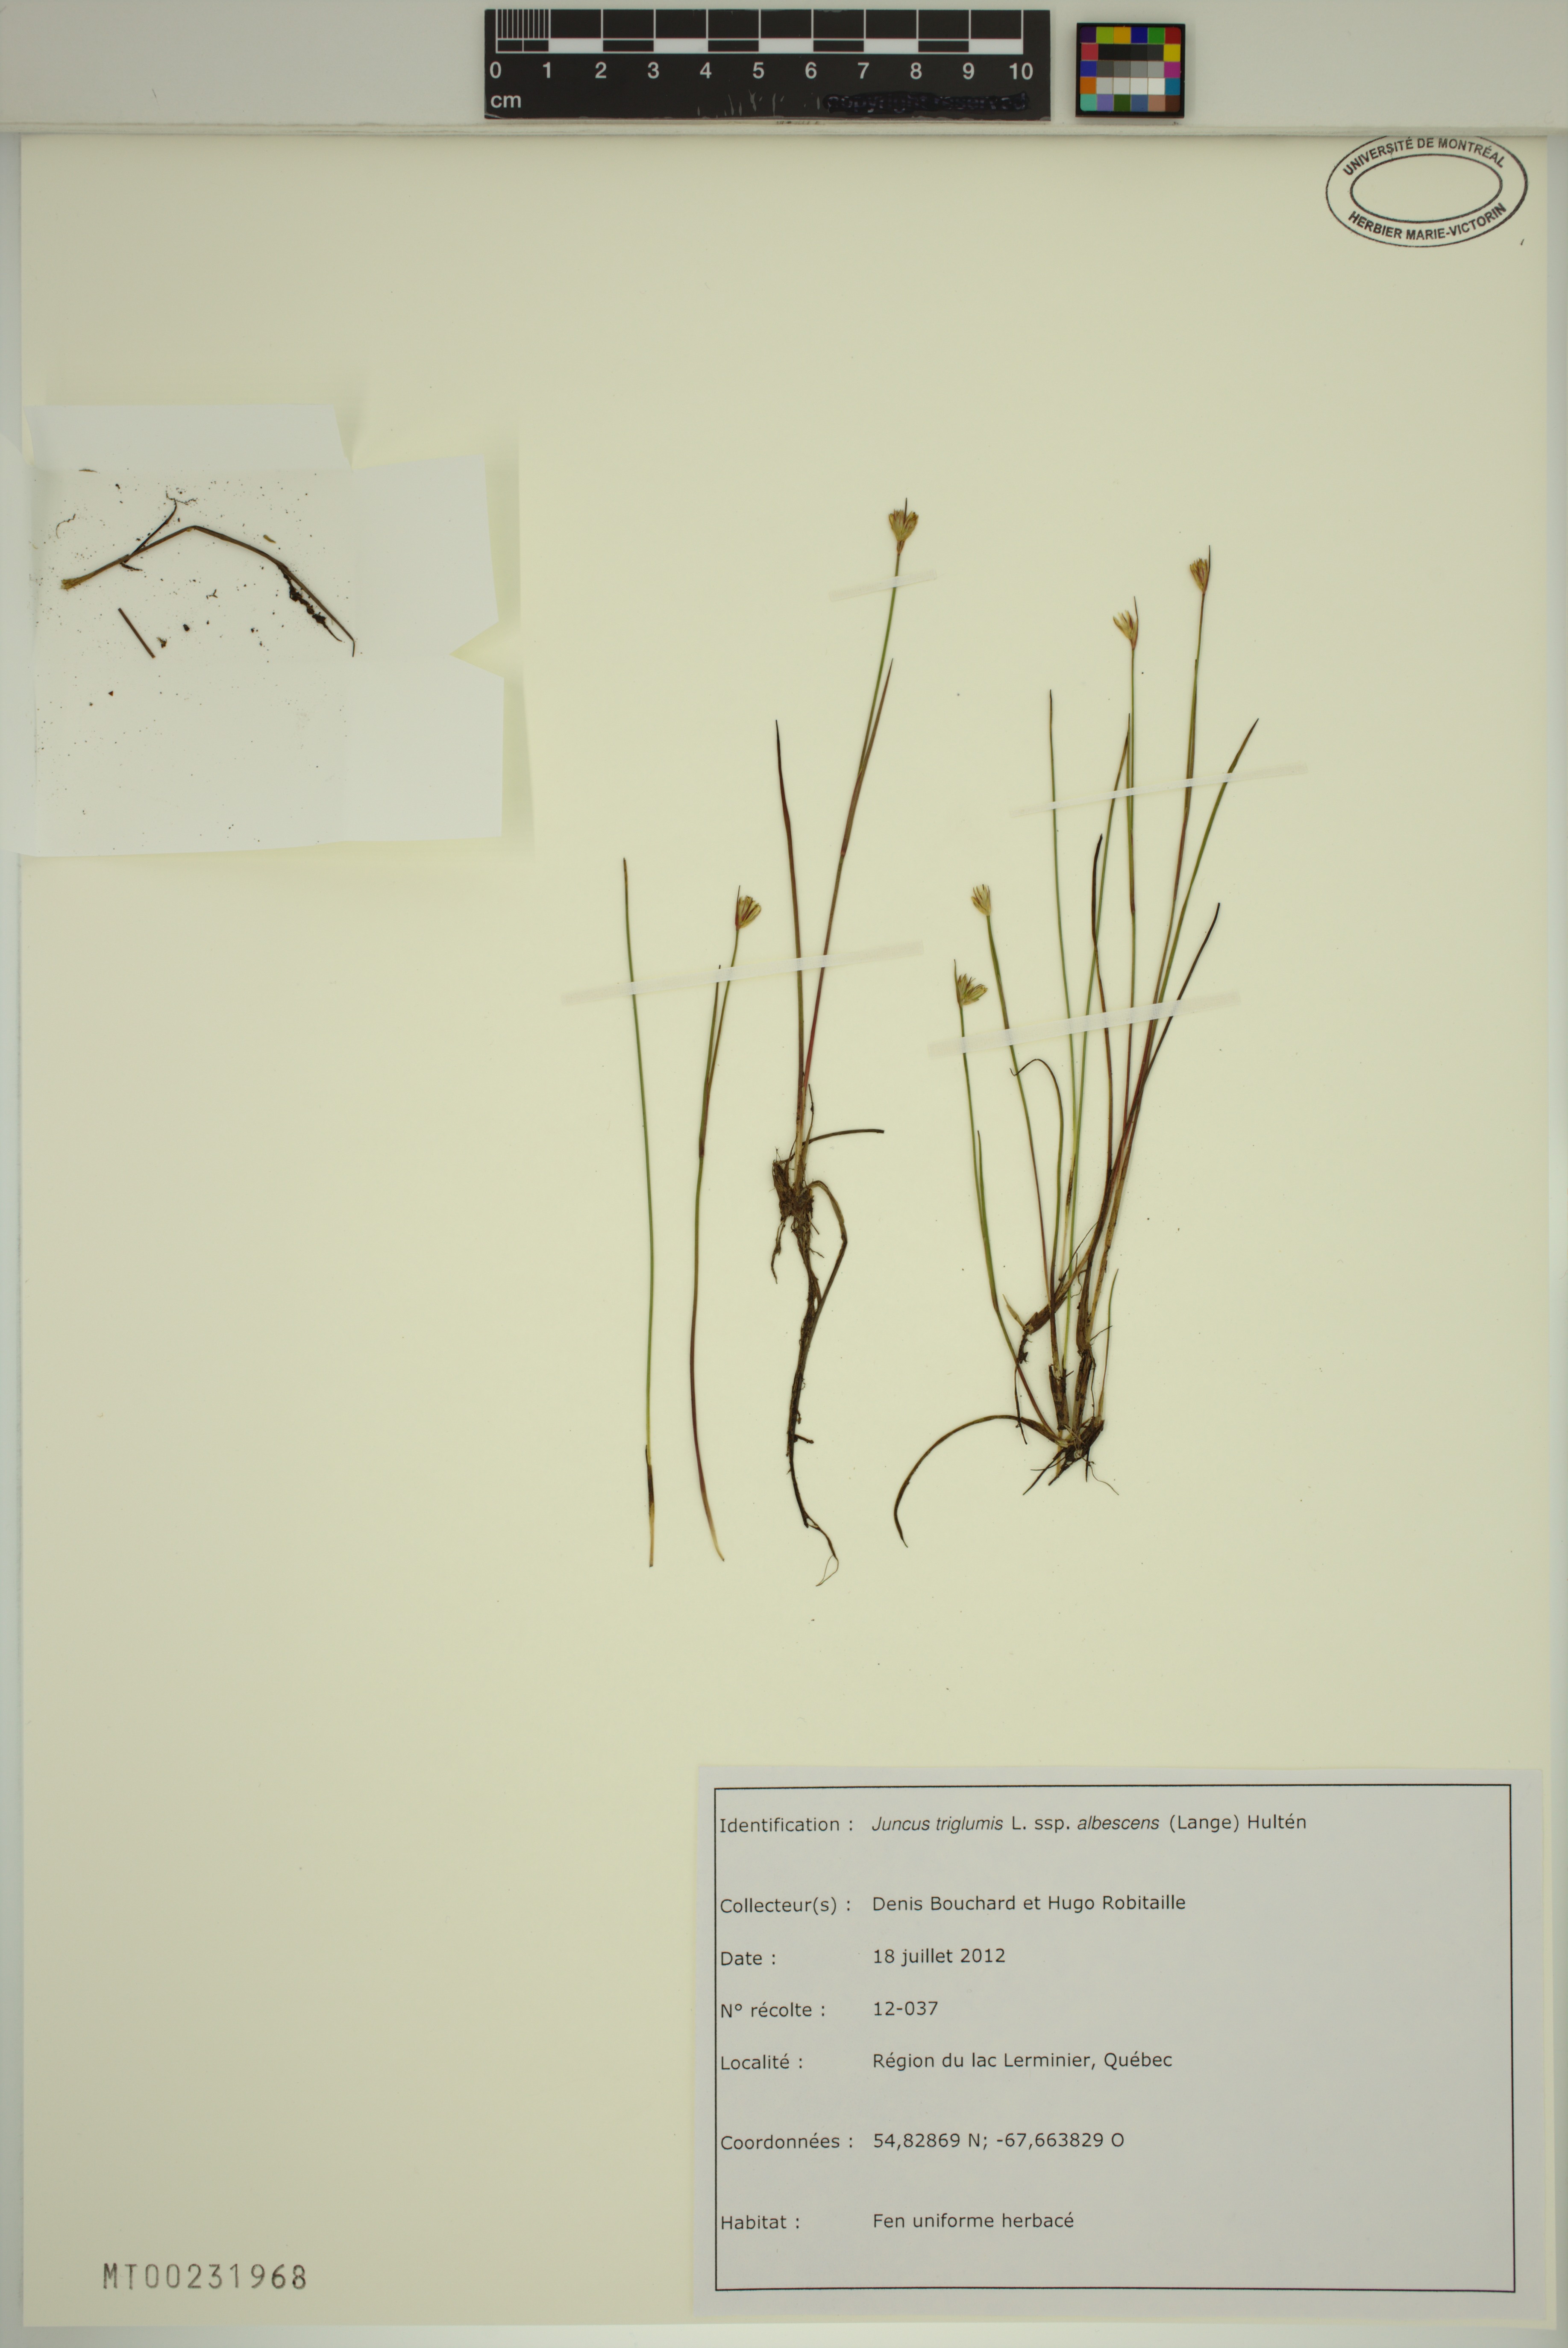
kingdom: Plantae
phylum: Tracheophyta
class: Liliopsida
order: Poales
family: Juncaceae
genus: Juncus
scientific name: Juncus albescens
